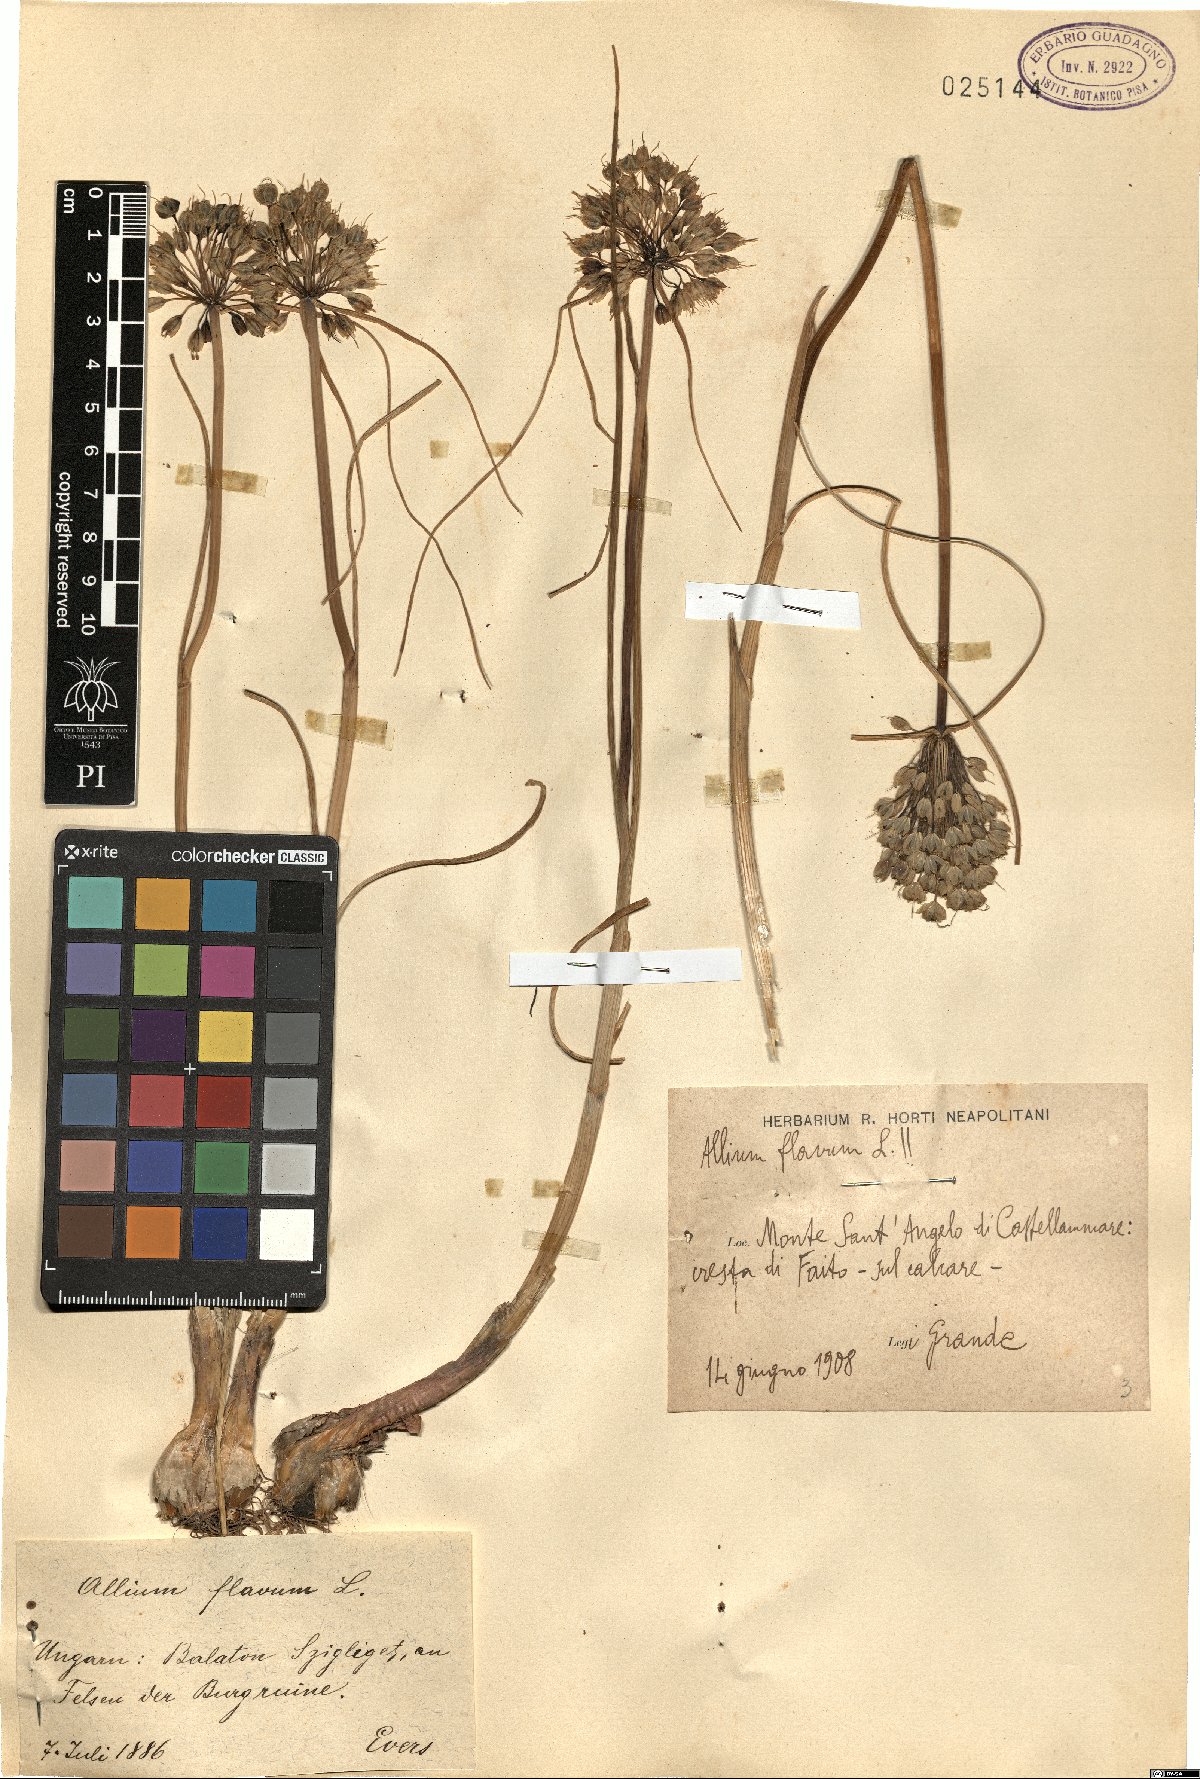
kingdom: Plantae
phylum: Tracheophyta
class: Liliopsida
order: Asparagales
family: Amaryllidaceae
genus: Allium
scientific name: Allium flavum
